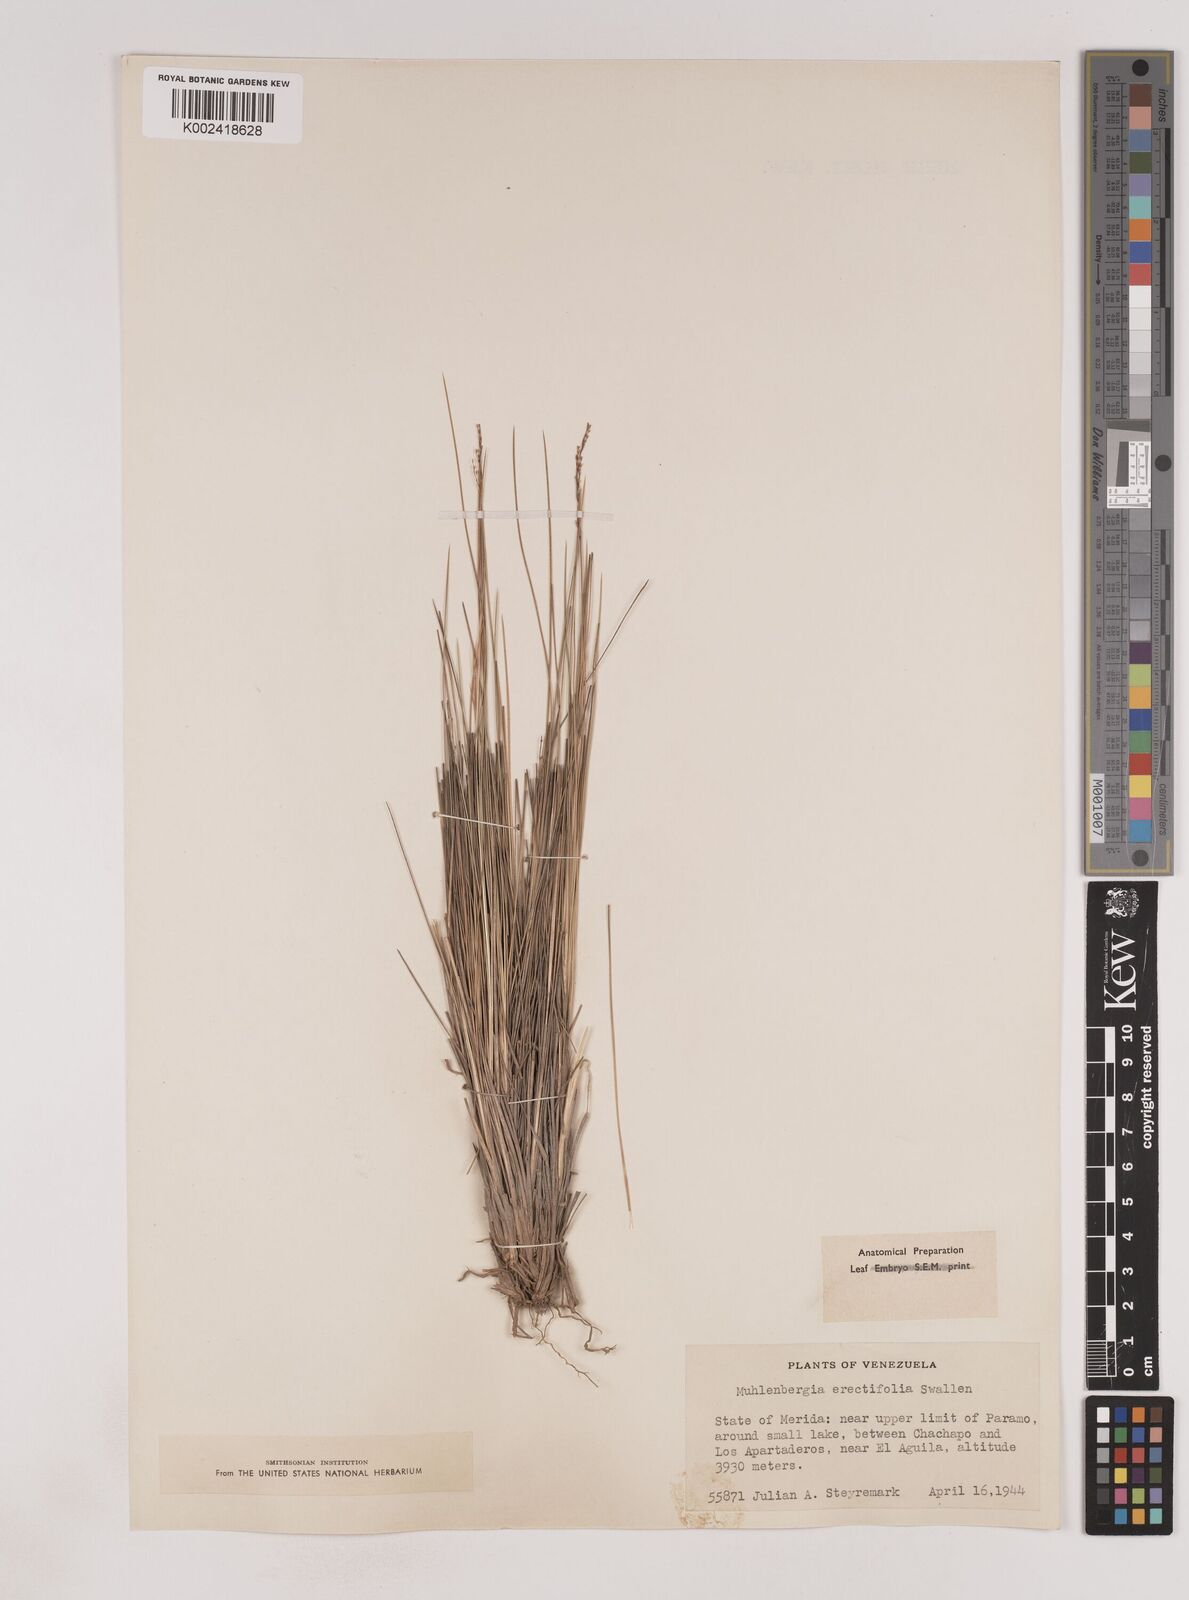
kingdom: Plantae
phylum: Tracheophyta
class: Liliopsida
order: Poales
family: Poaceae
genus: Lorenzochloa
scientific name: Lorenzochloa erectifolia
